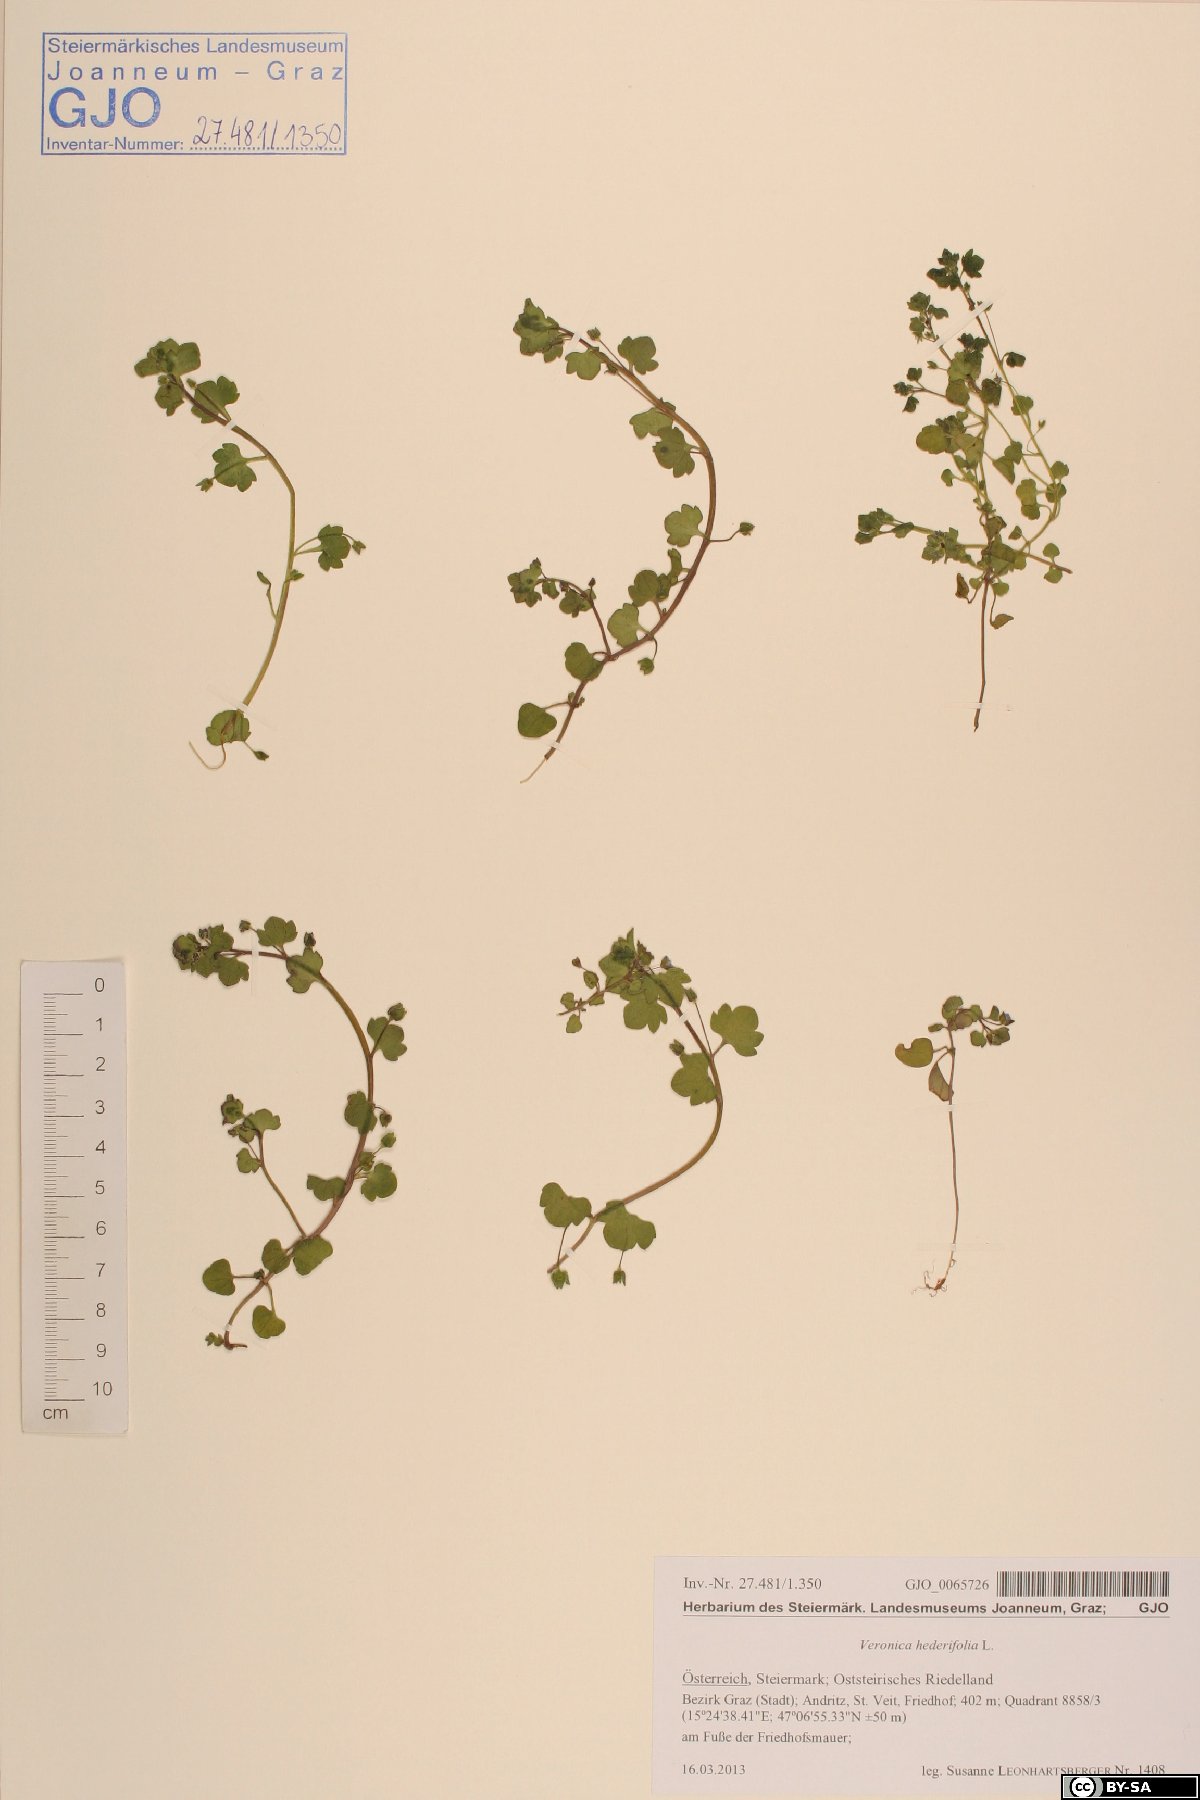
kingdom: Plantae
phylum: Tracheophyta
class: Magnoliopsida
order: Lamiales
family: Plantaginaceae
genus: Veronica
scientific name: Veronica hederifolia
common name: Ivy-leaved speedwell
